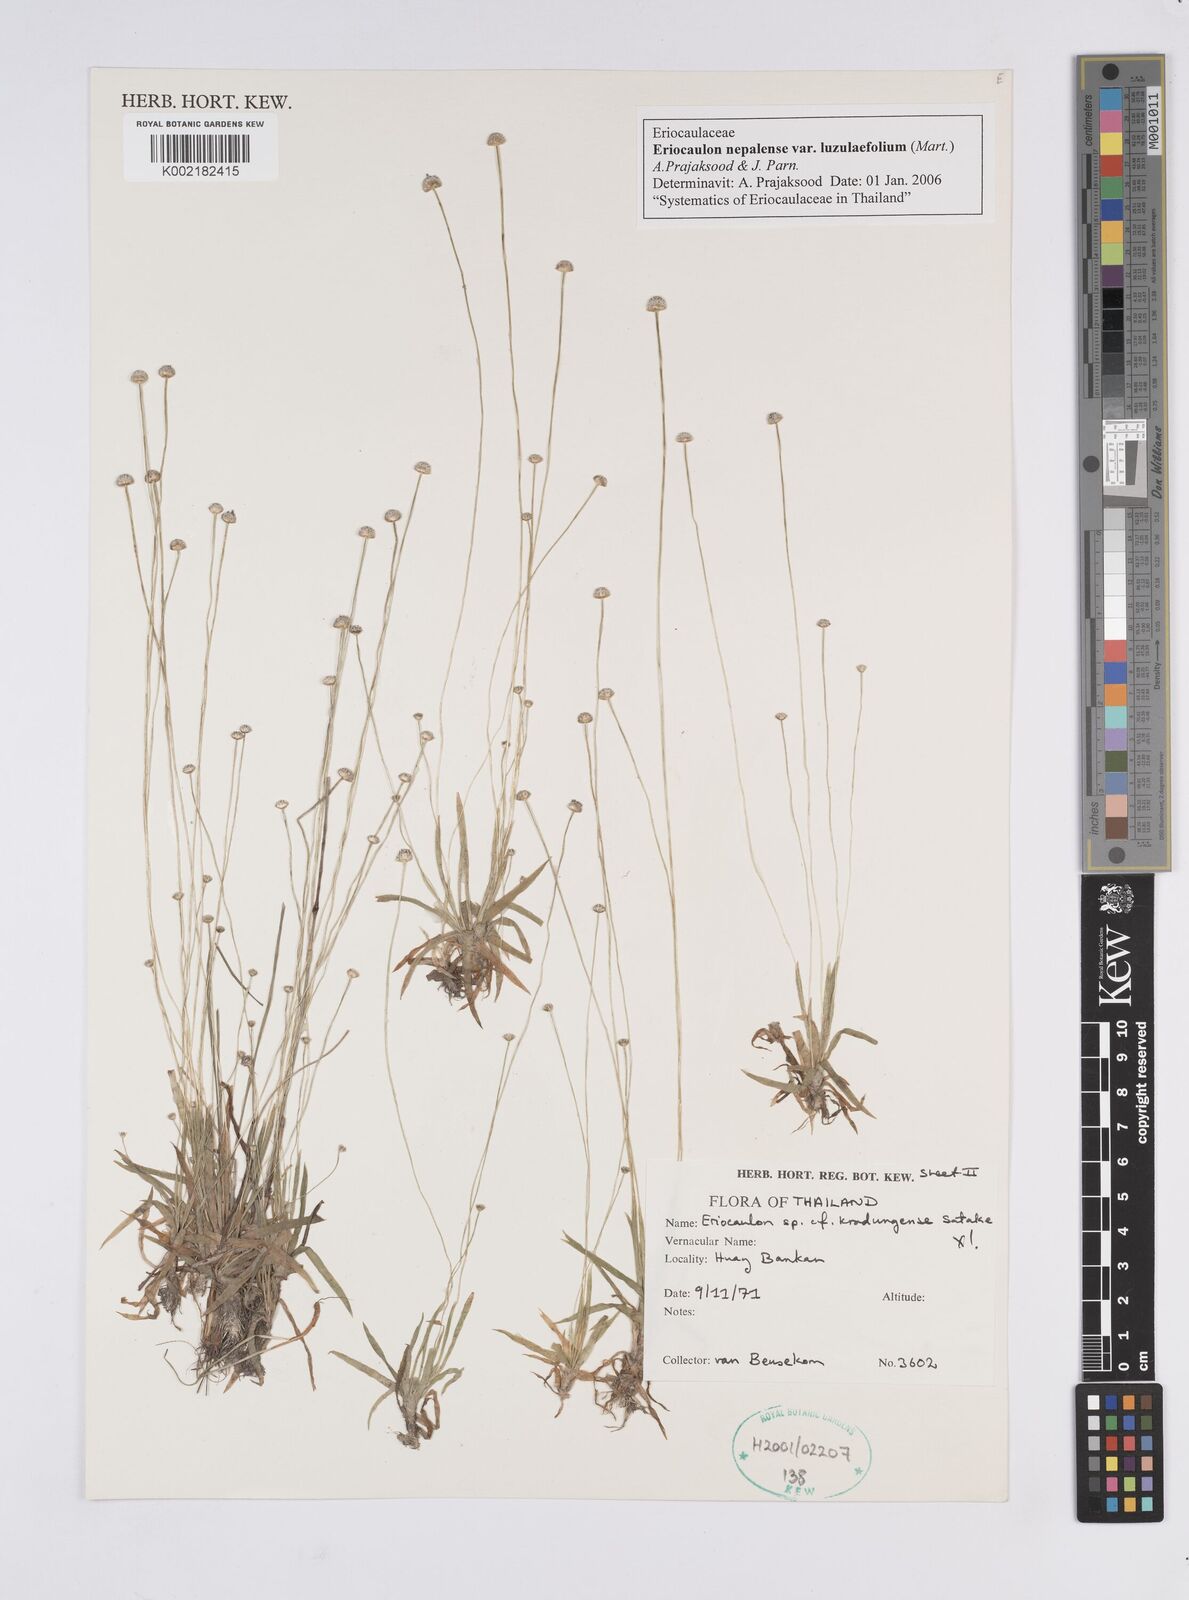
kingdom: Plantae
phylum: Tracheophyta
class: Liliopsida
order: Poales
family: Eriocaulaceae
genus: Eriocaulon
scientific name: Eriocaulon nepalense
